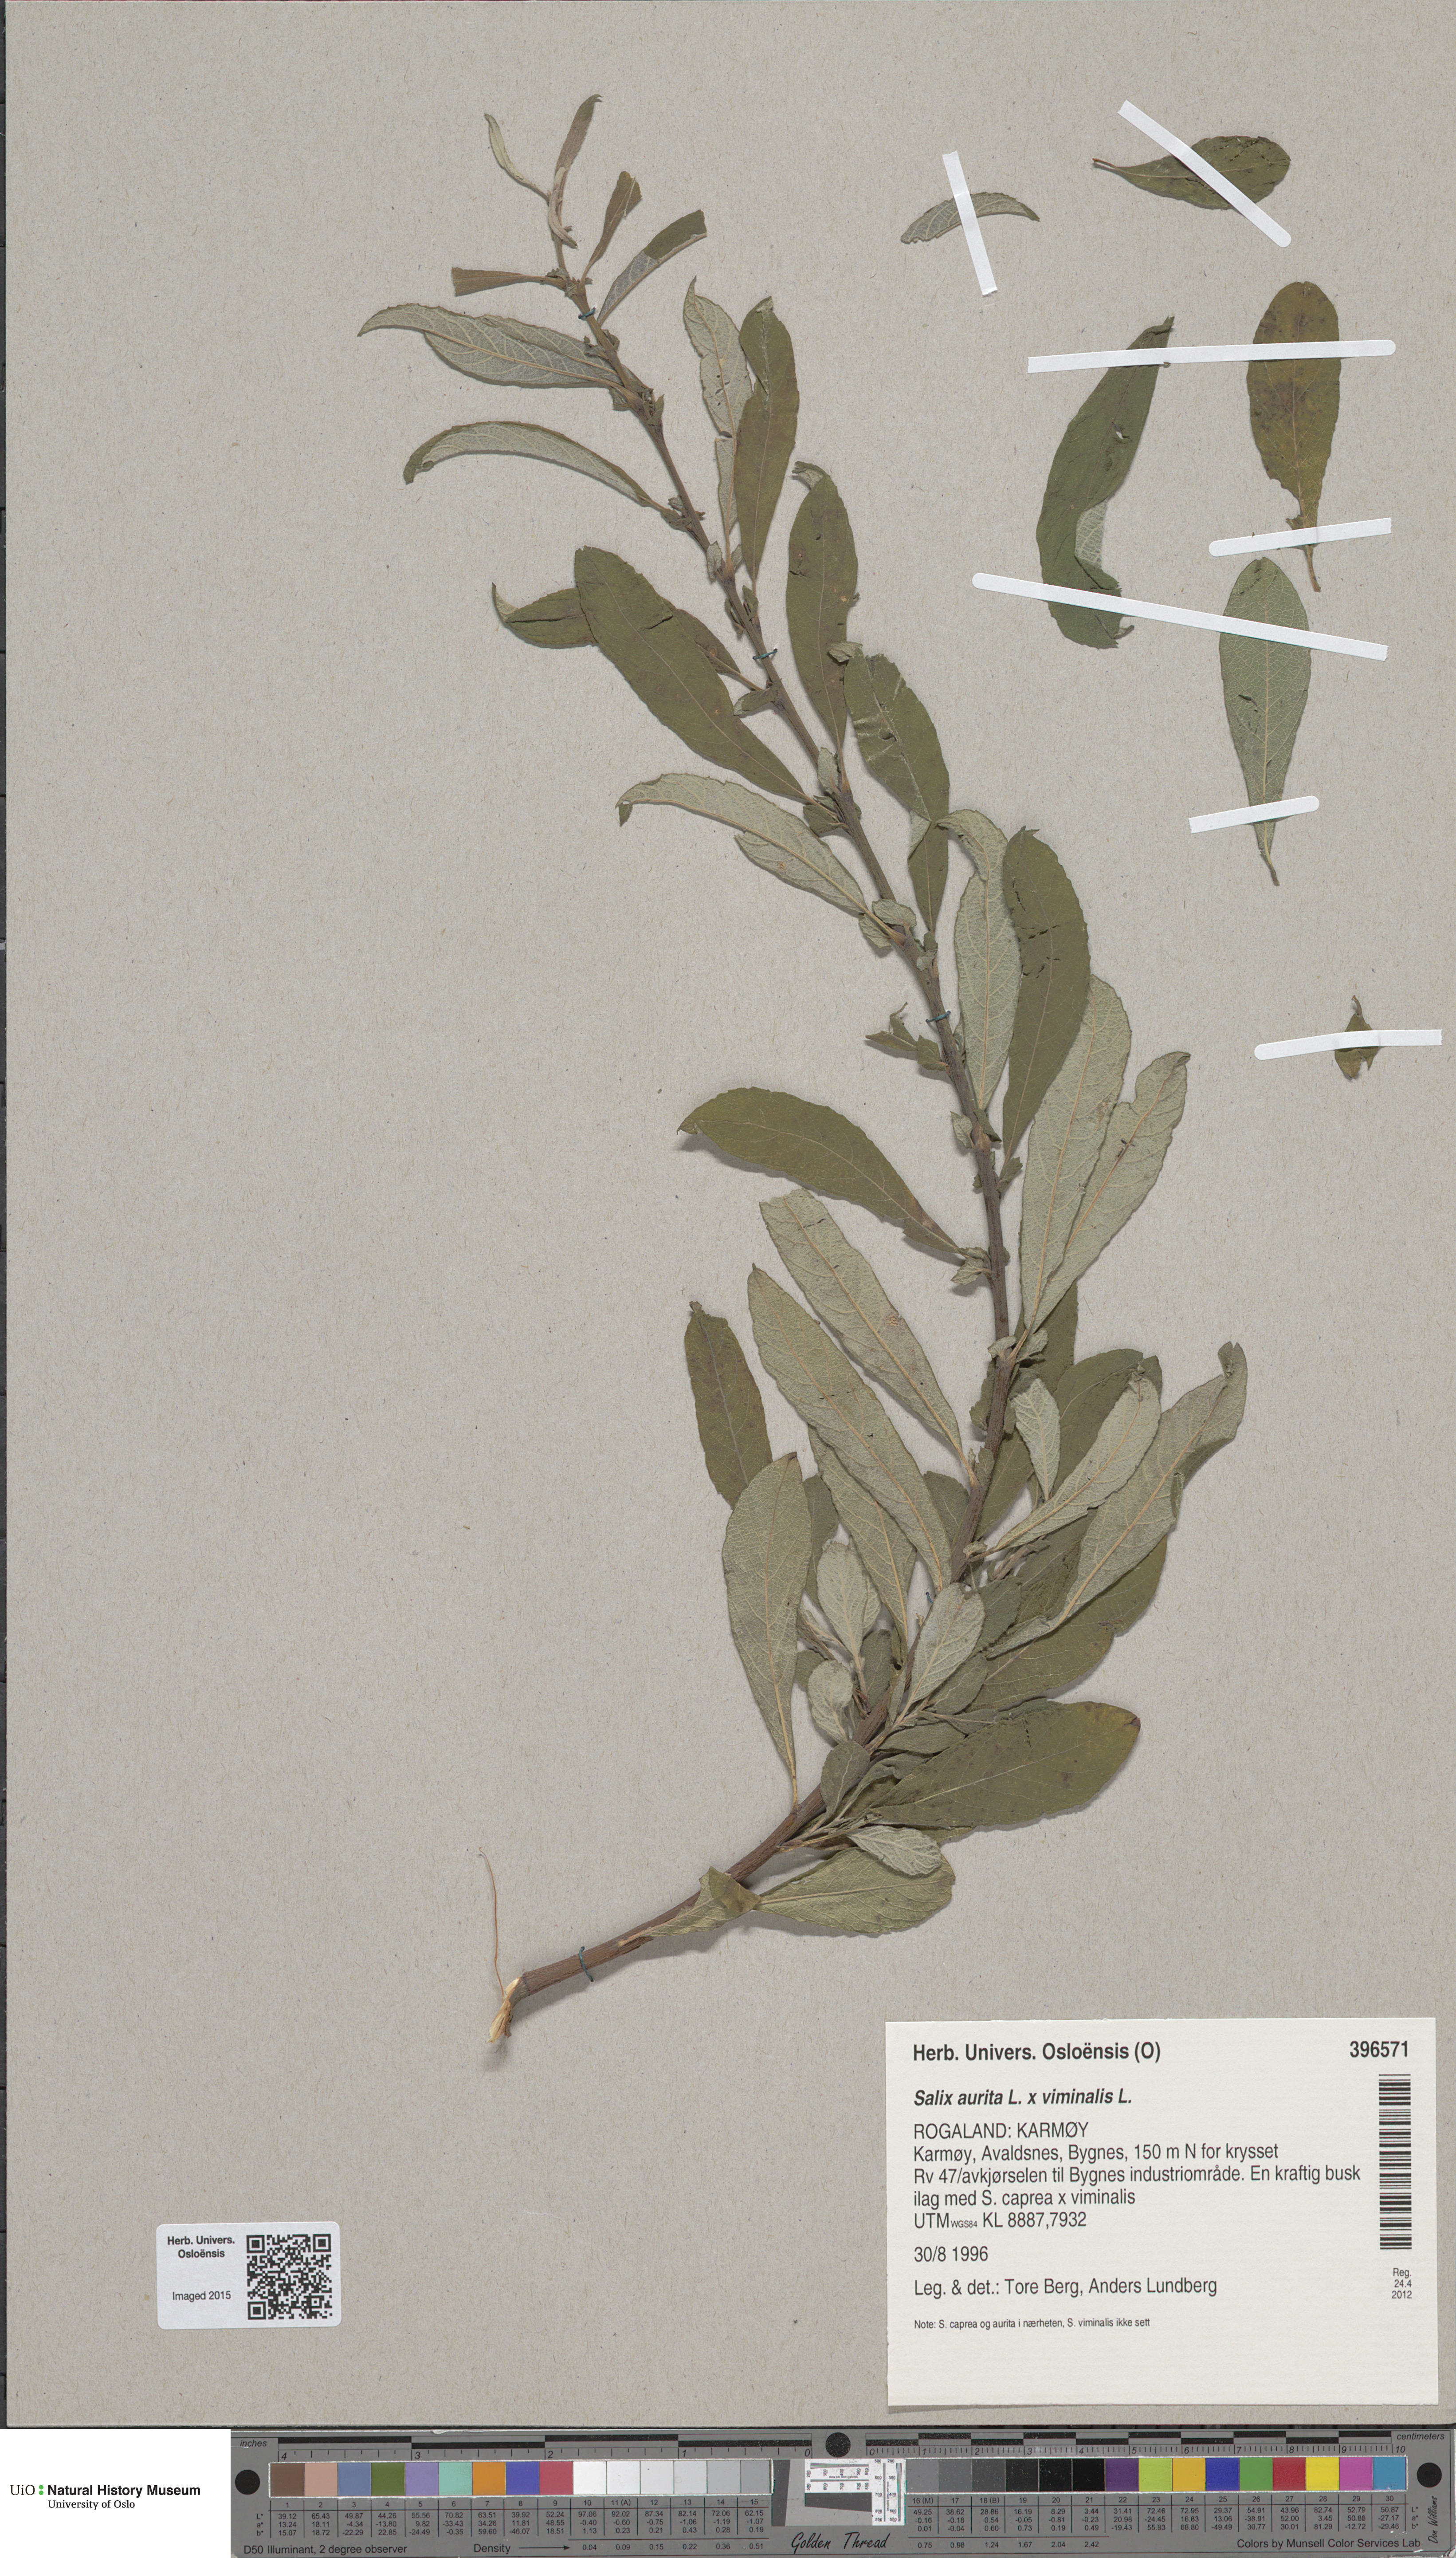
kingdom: Plantae
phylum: Tracheophyta
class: Magnoliopsida
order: Malpighiales
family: Salicaceae
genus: Salix
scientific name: Salix
